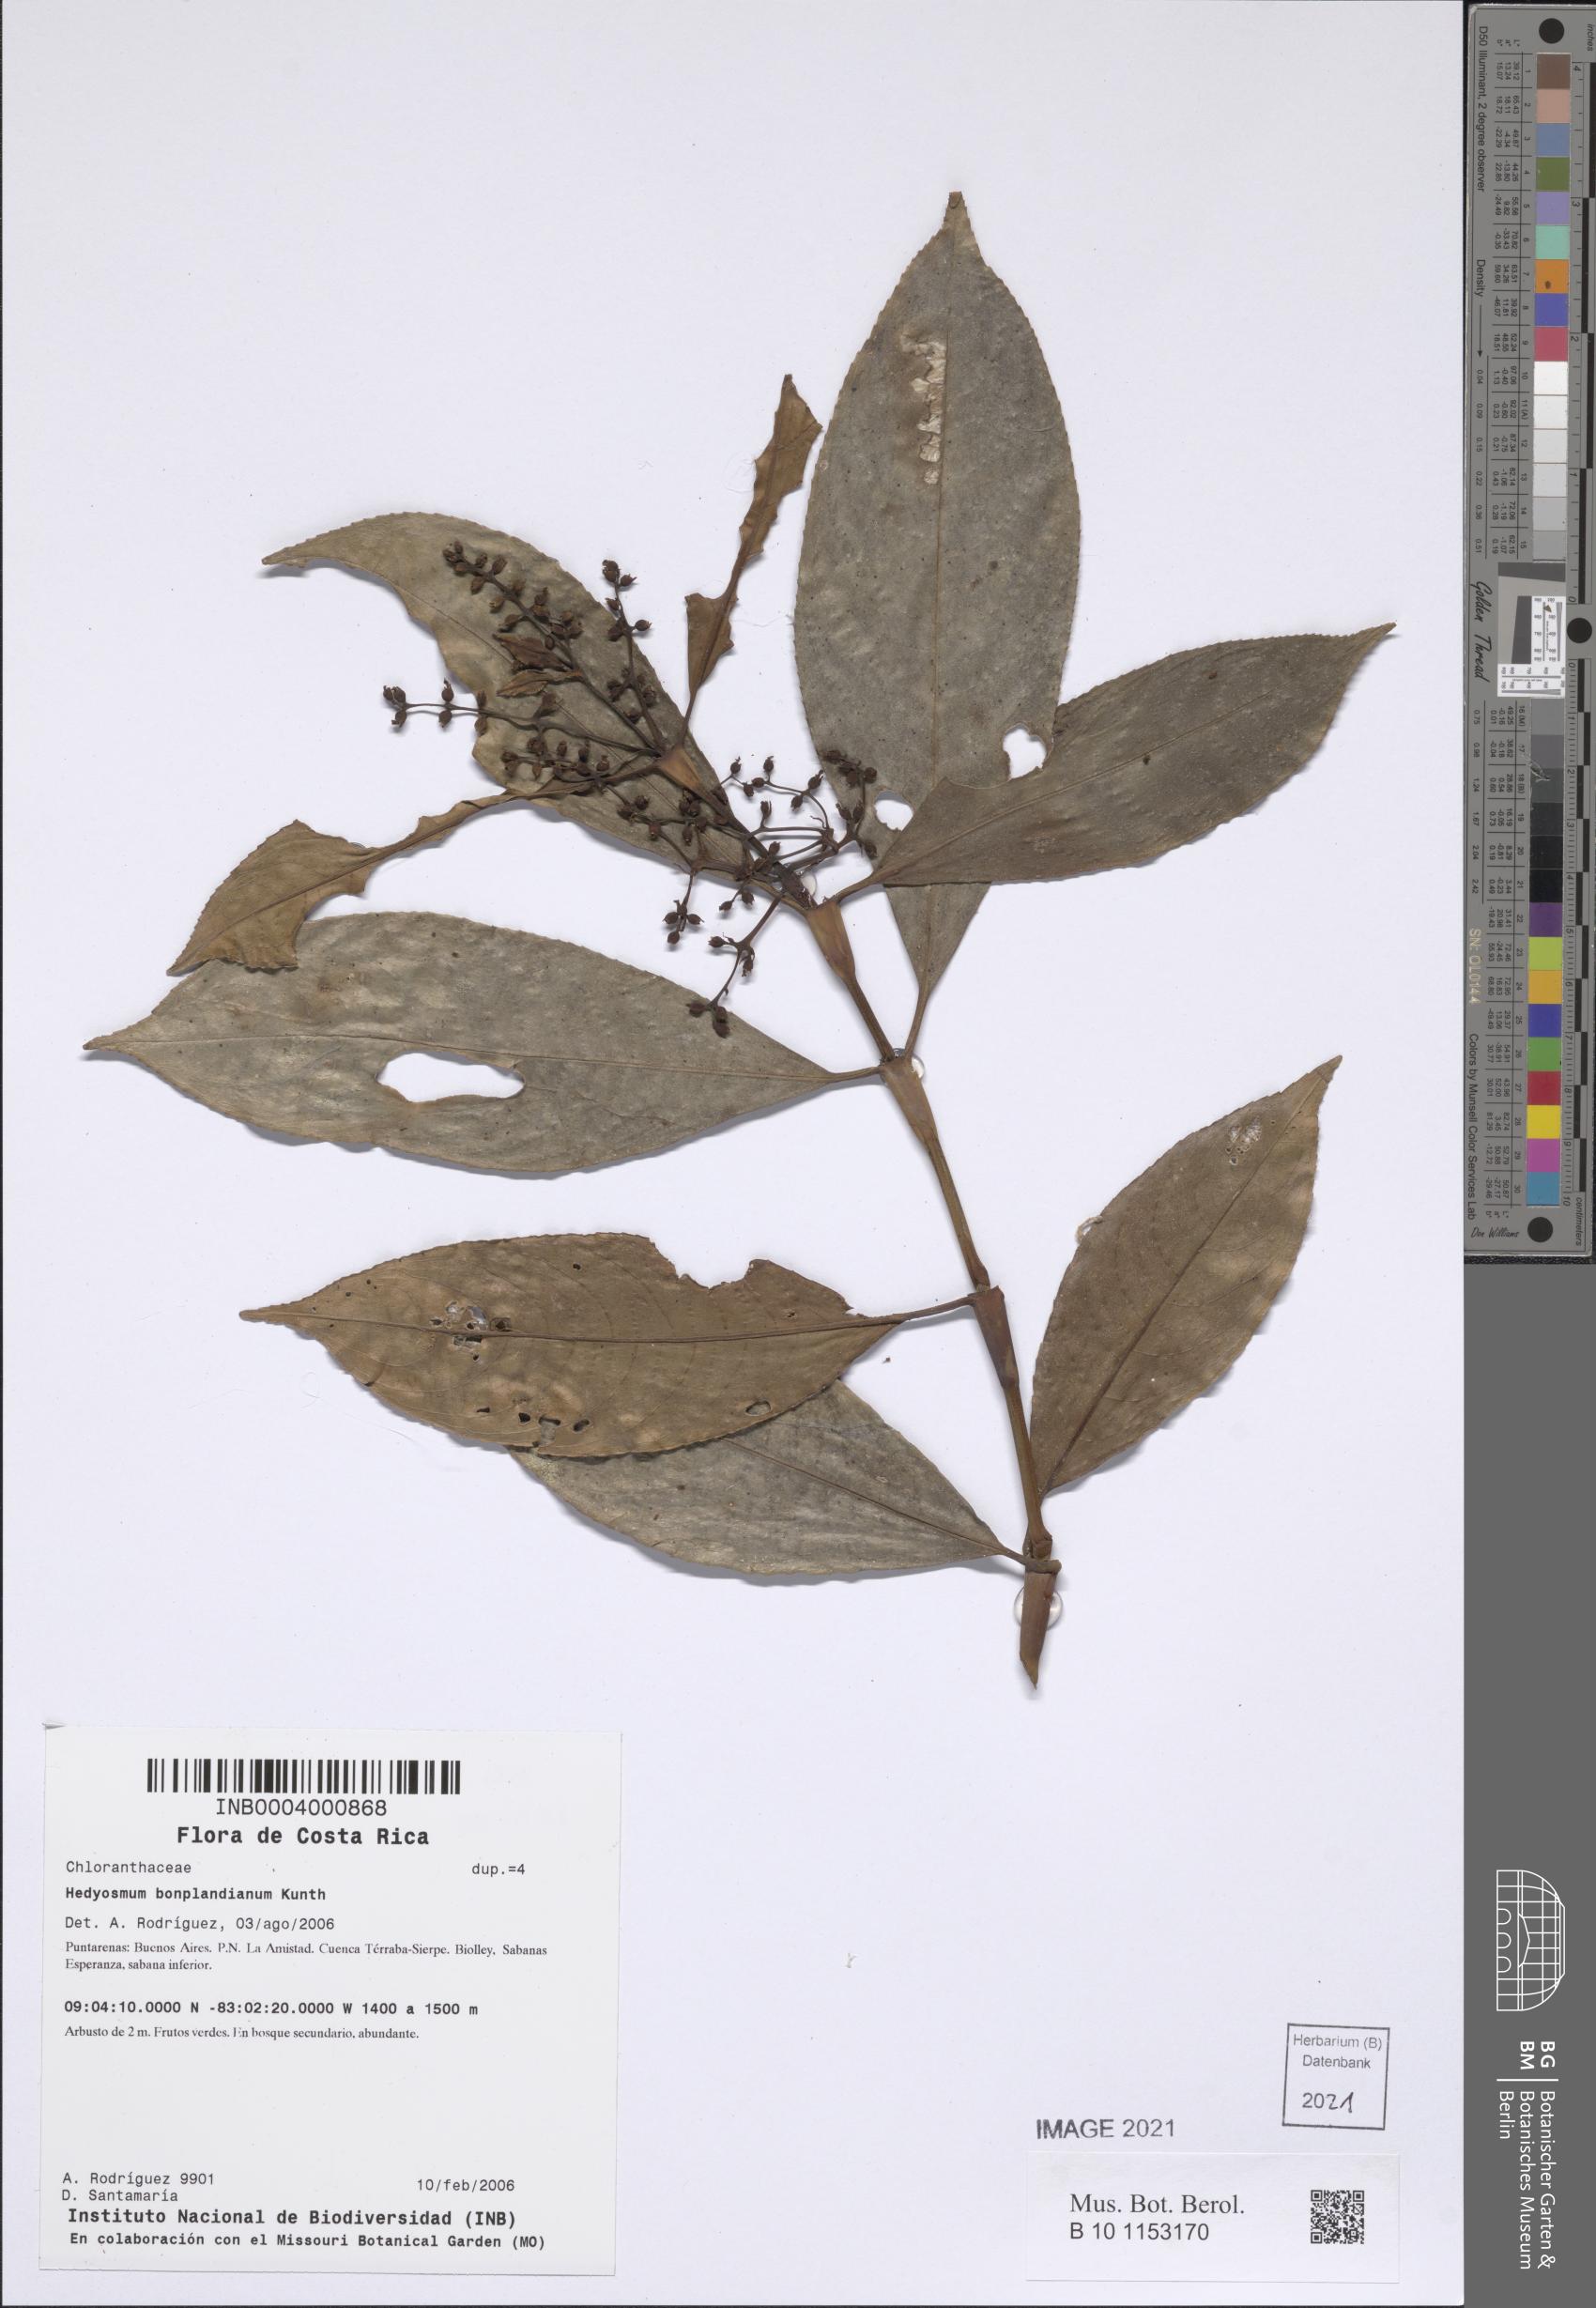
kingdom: Plantae
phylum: Tracheophyta
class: Magnoliopsida
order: Chloranthales
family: Chloranthaceae
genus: Hedyosmum
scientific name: Hedyosmum bonplandianum
